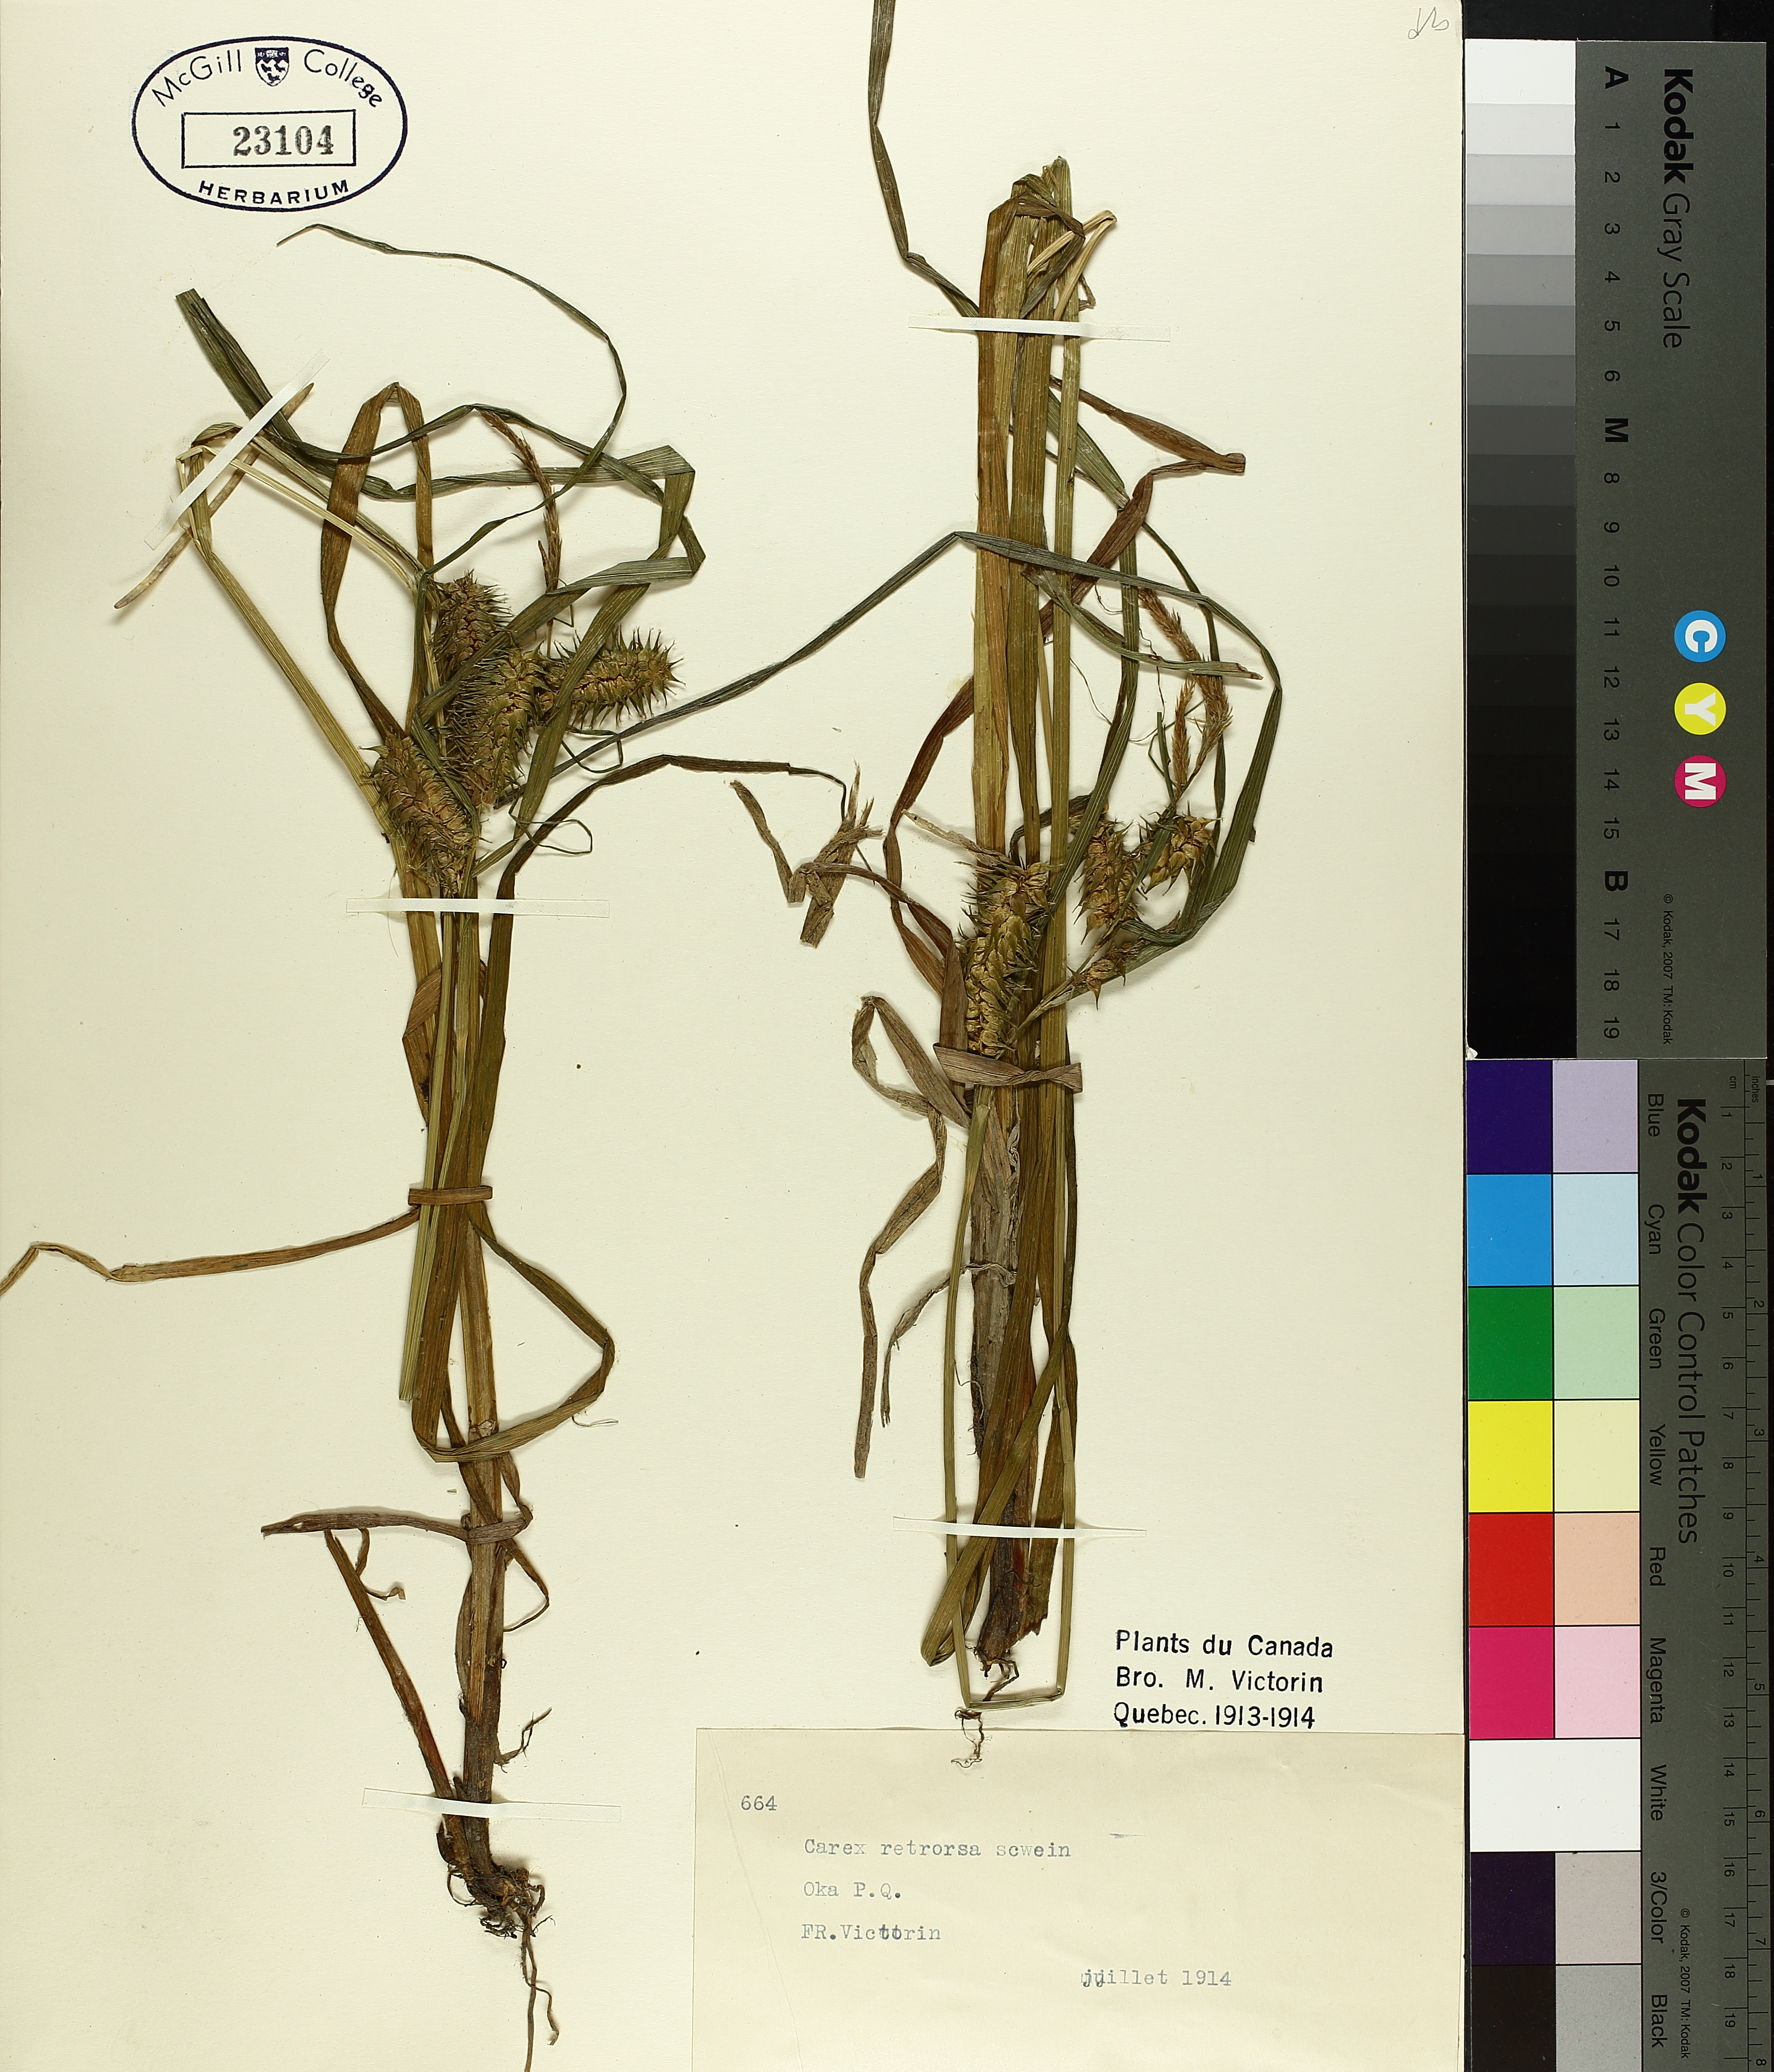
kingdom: Plantae
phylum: Tracheophyta
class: Liliopsida
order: Poales
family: Cyperaceae
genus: Carex
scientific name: Carex retrorsa
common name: Knot-sheath sedge
